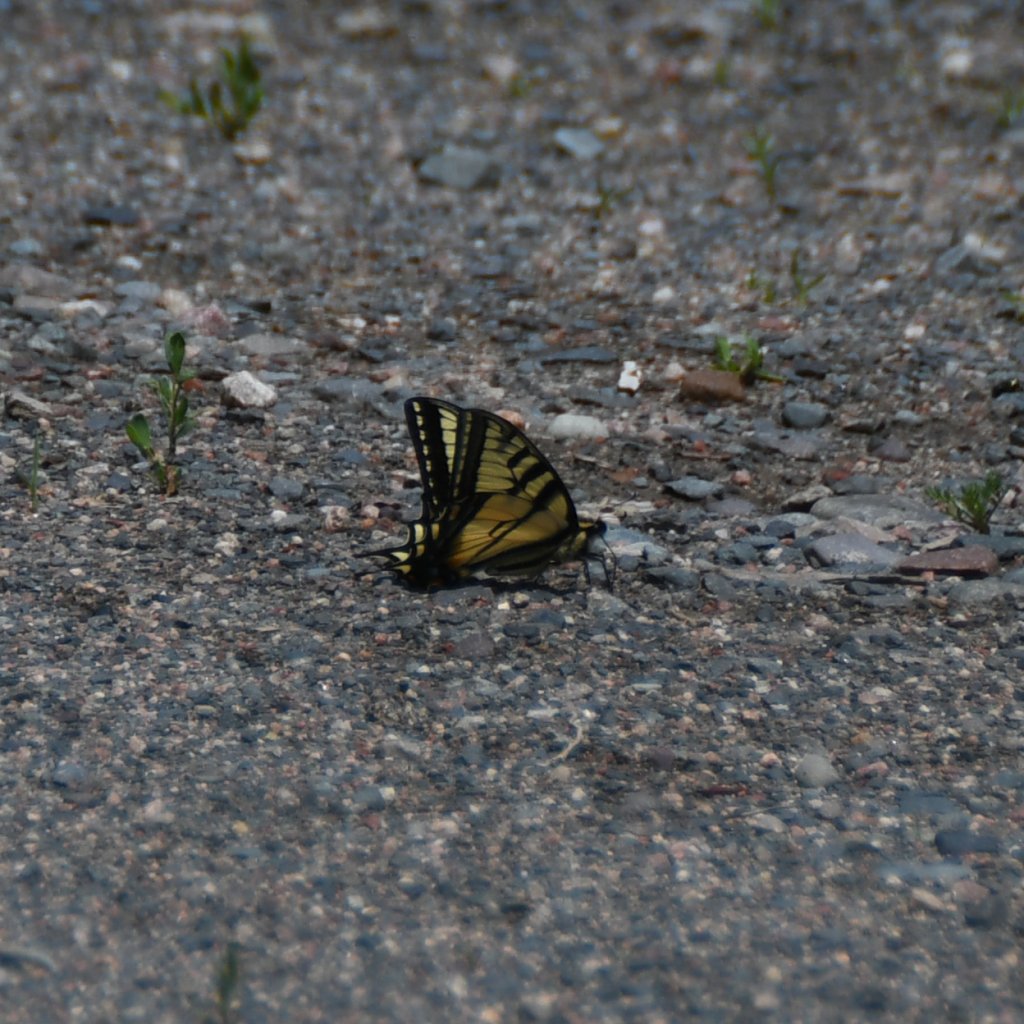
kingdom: Animalia
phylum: Arthropoda
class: Insecta
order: Lepidoptera
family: Papilionidae
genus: Pterourus
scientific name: Pterourus canadensis
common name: Canadian Tiger Swallowtail
